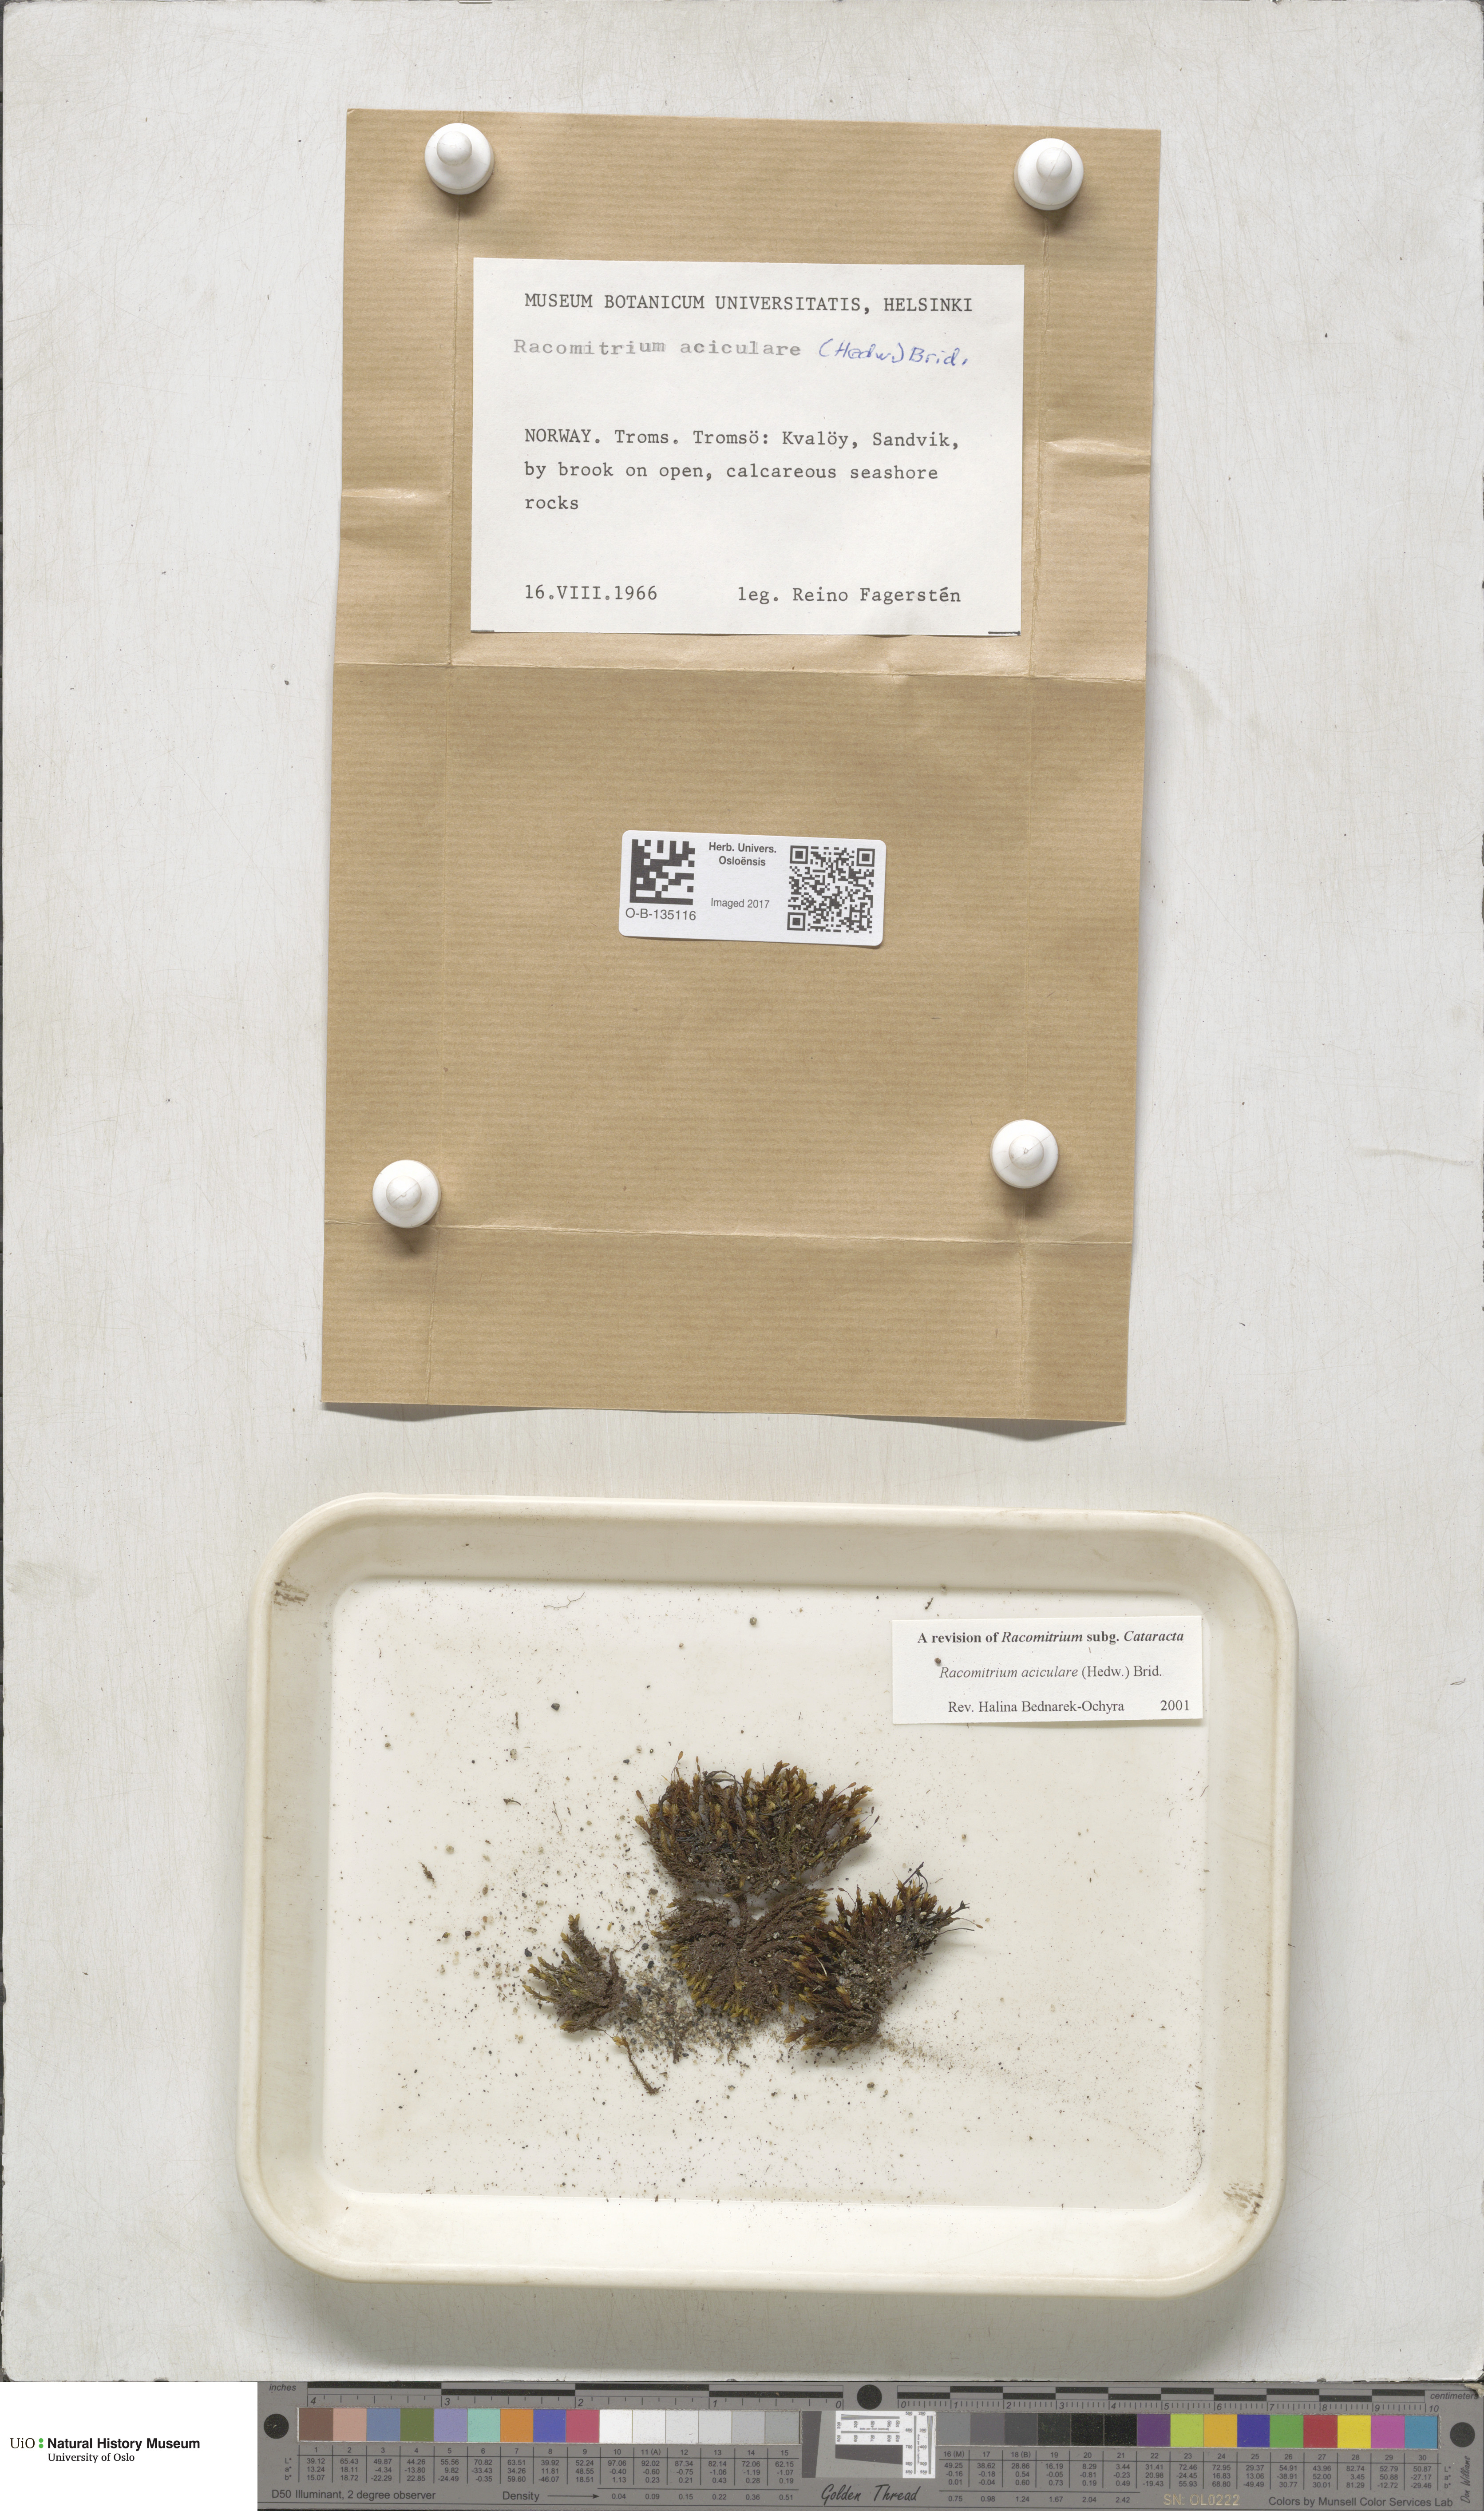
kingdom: Plantae
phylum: Bryophyta
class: Bryopsida
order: Grimmiales
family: Grimmiaceae
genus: Codriophorus
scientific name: Codriophorus acicularis
